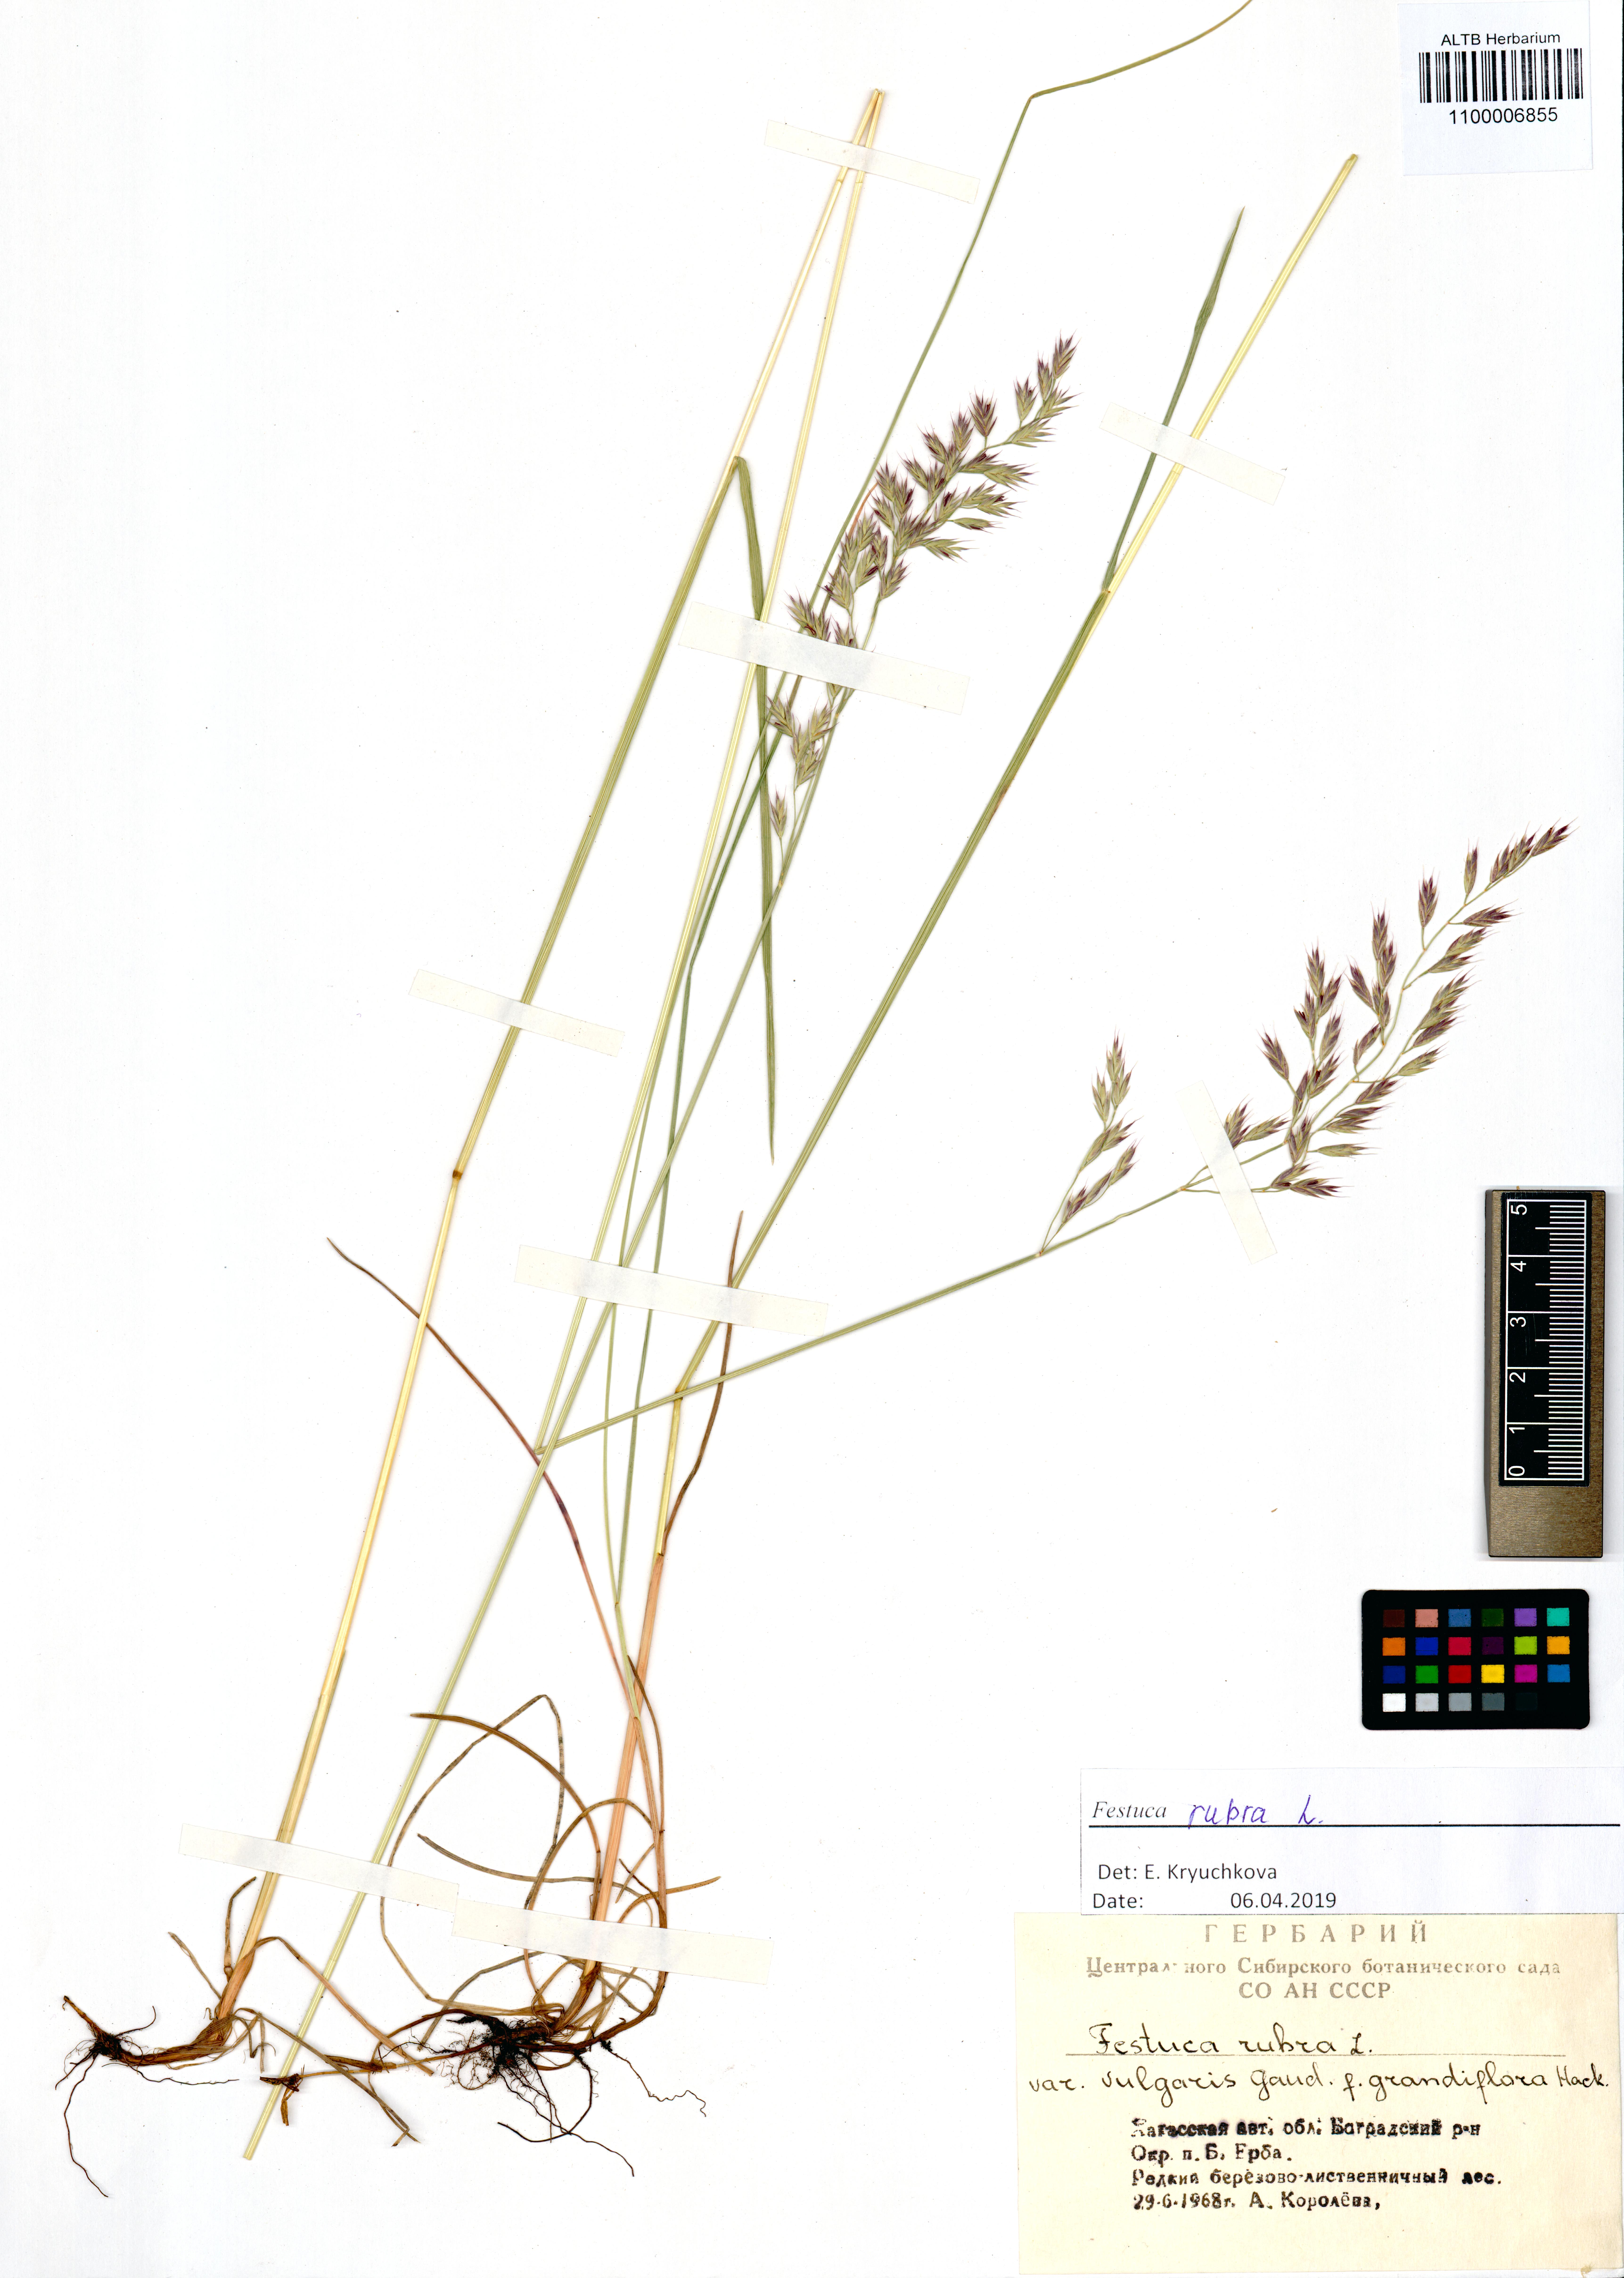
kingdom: Plantae
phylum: Tracheophyta
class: Liliopsida
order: Poales
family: Poaceae
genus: Festuca
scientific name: Festuca rubra
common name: Red fescue
